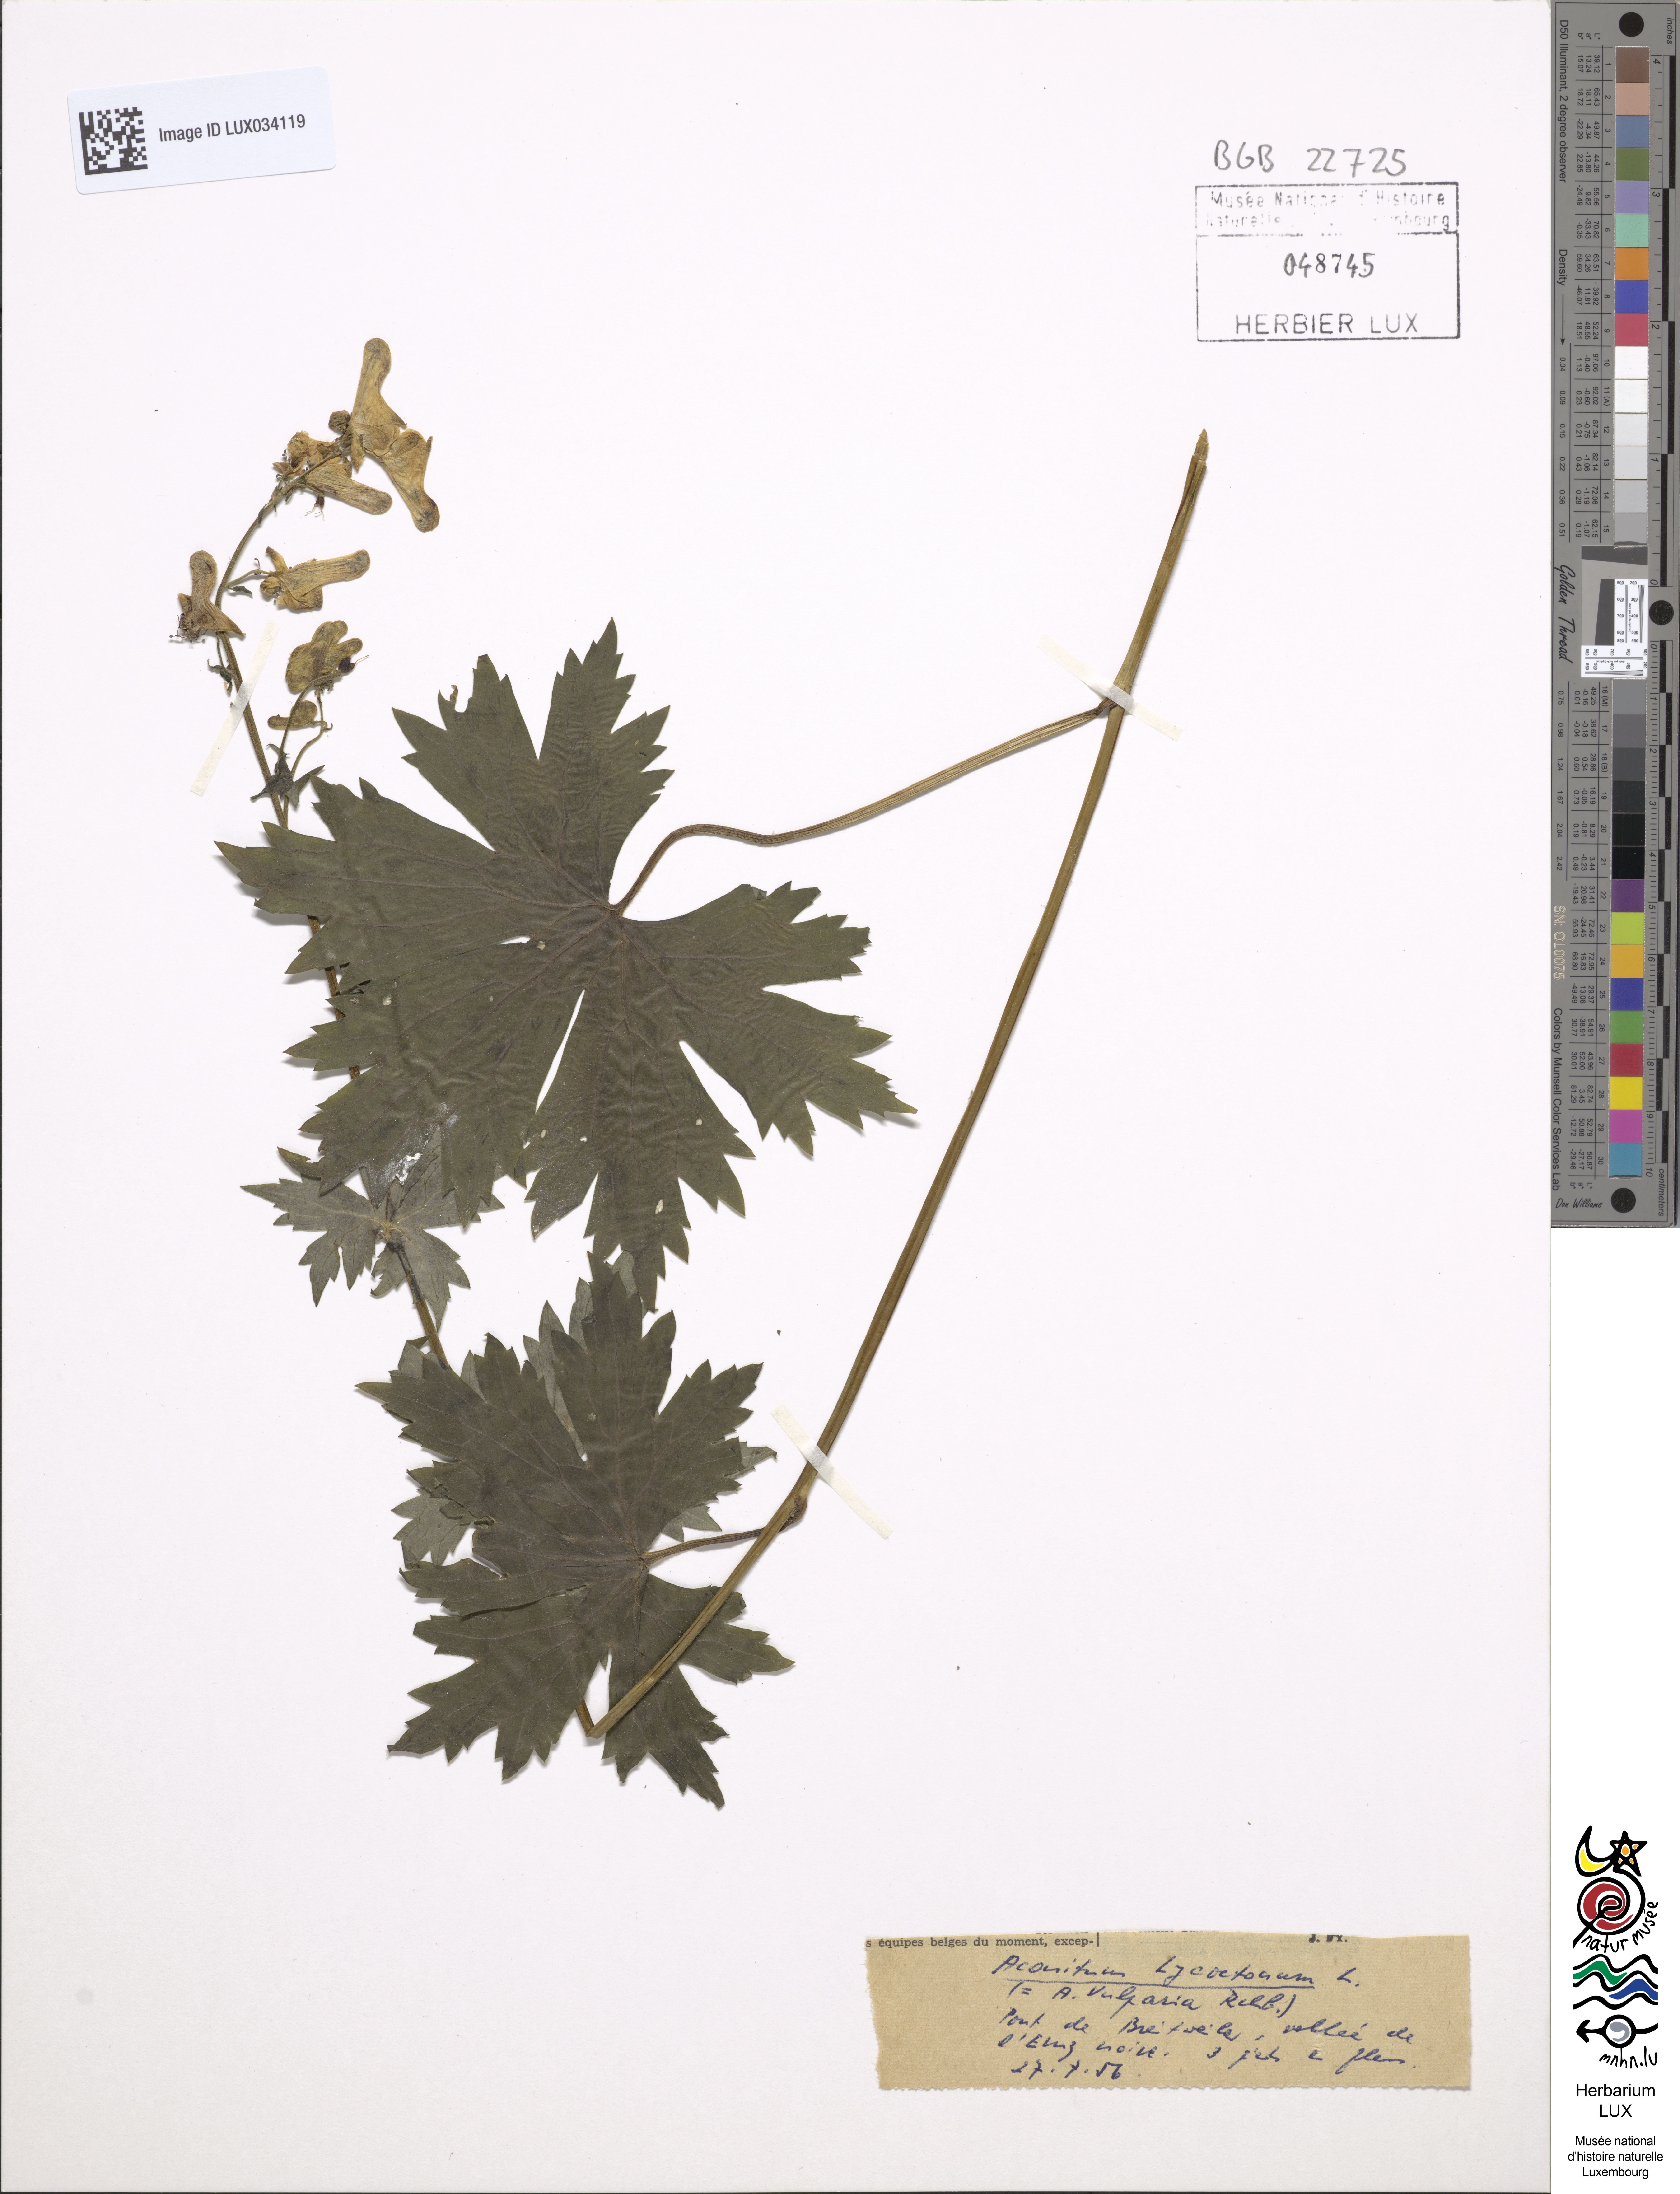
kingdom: Plantae
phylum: Tracheophyta
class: Magnoliopsida
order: Ranunculales
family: Ranunculaceae
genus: Aconitum
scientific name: Aconitum lycoctonum
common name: Wolf's-bane
